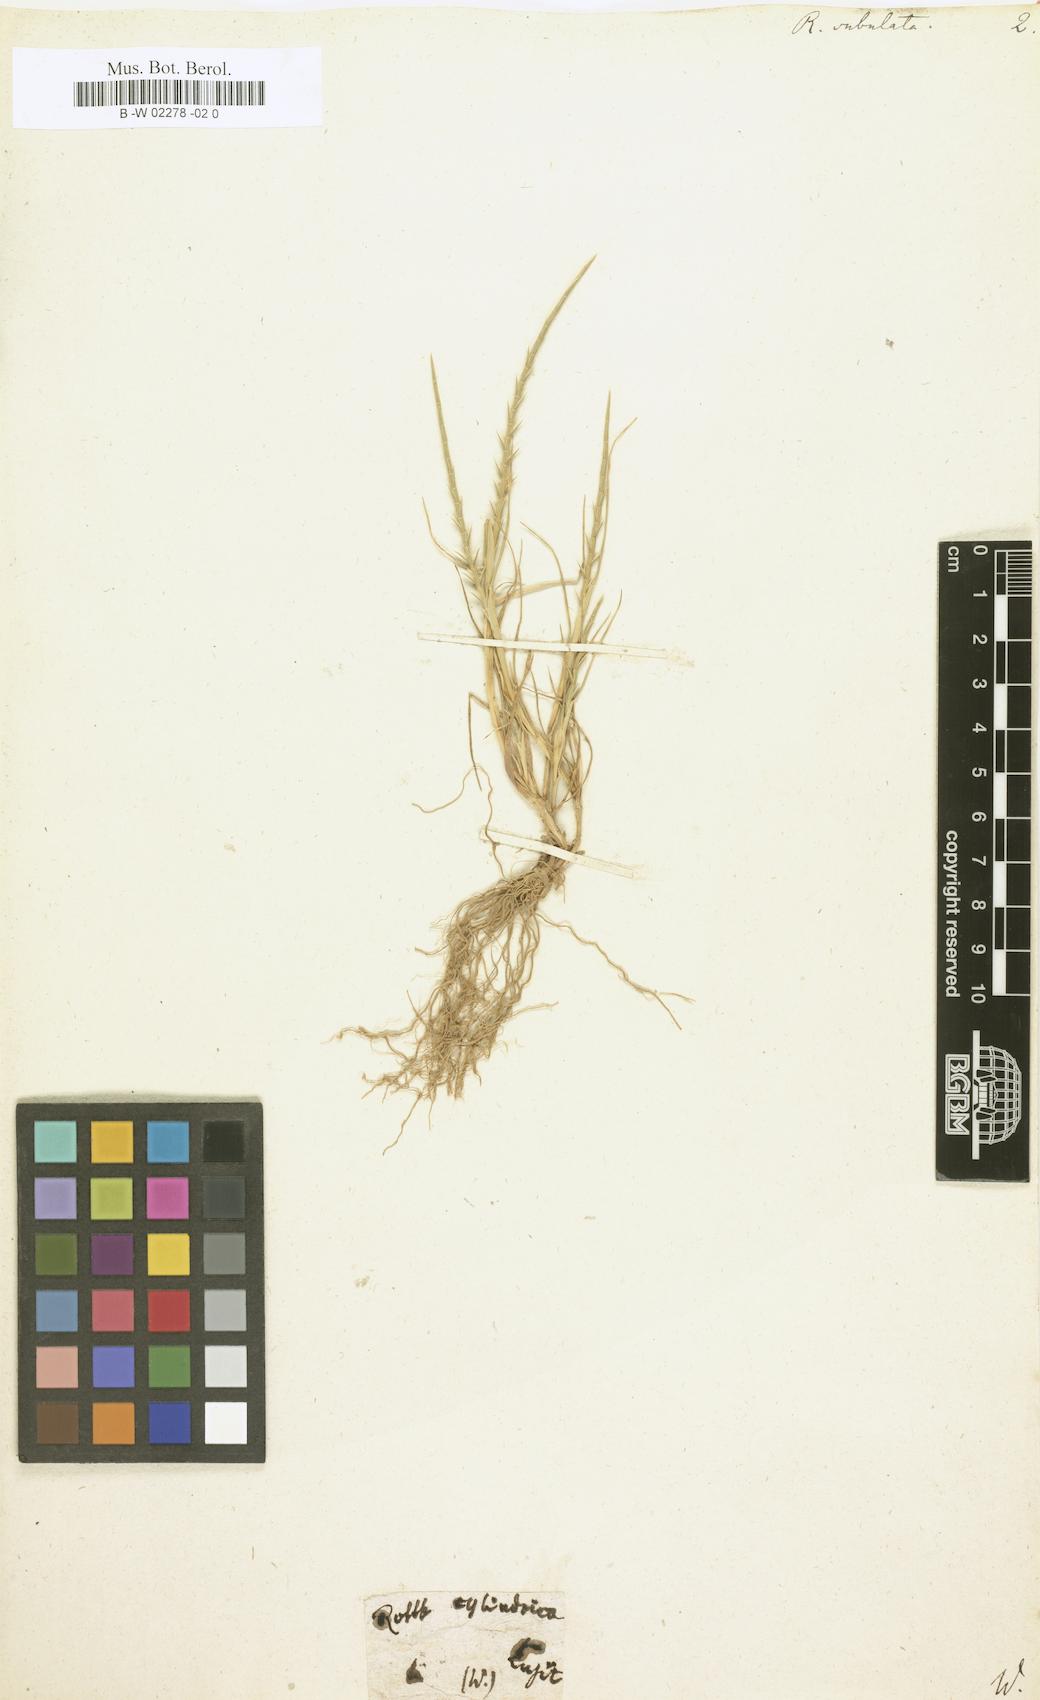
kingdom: Plantae
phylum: Tracheophyta
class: Liliopsida
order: Poales
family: Poaceae
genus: Parapholis
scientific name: Parapholis cylindrica
